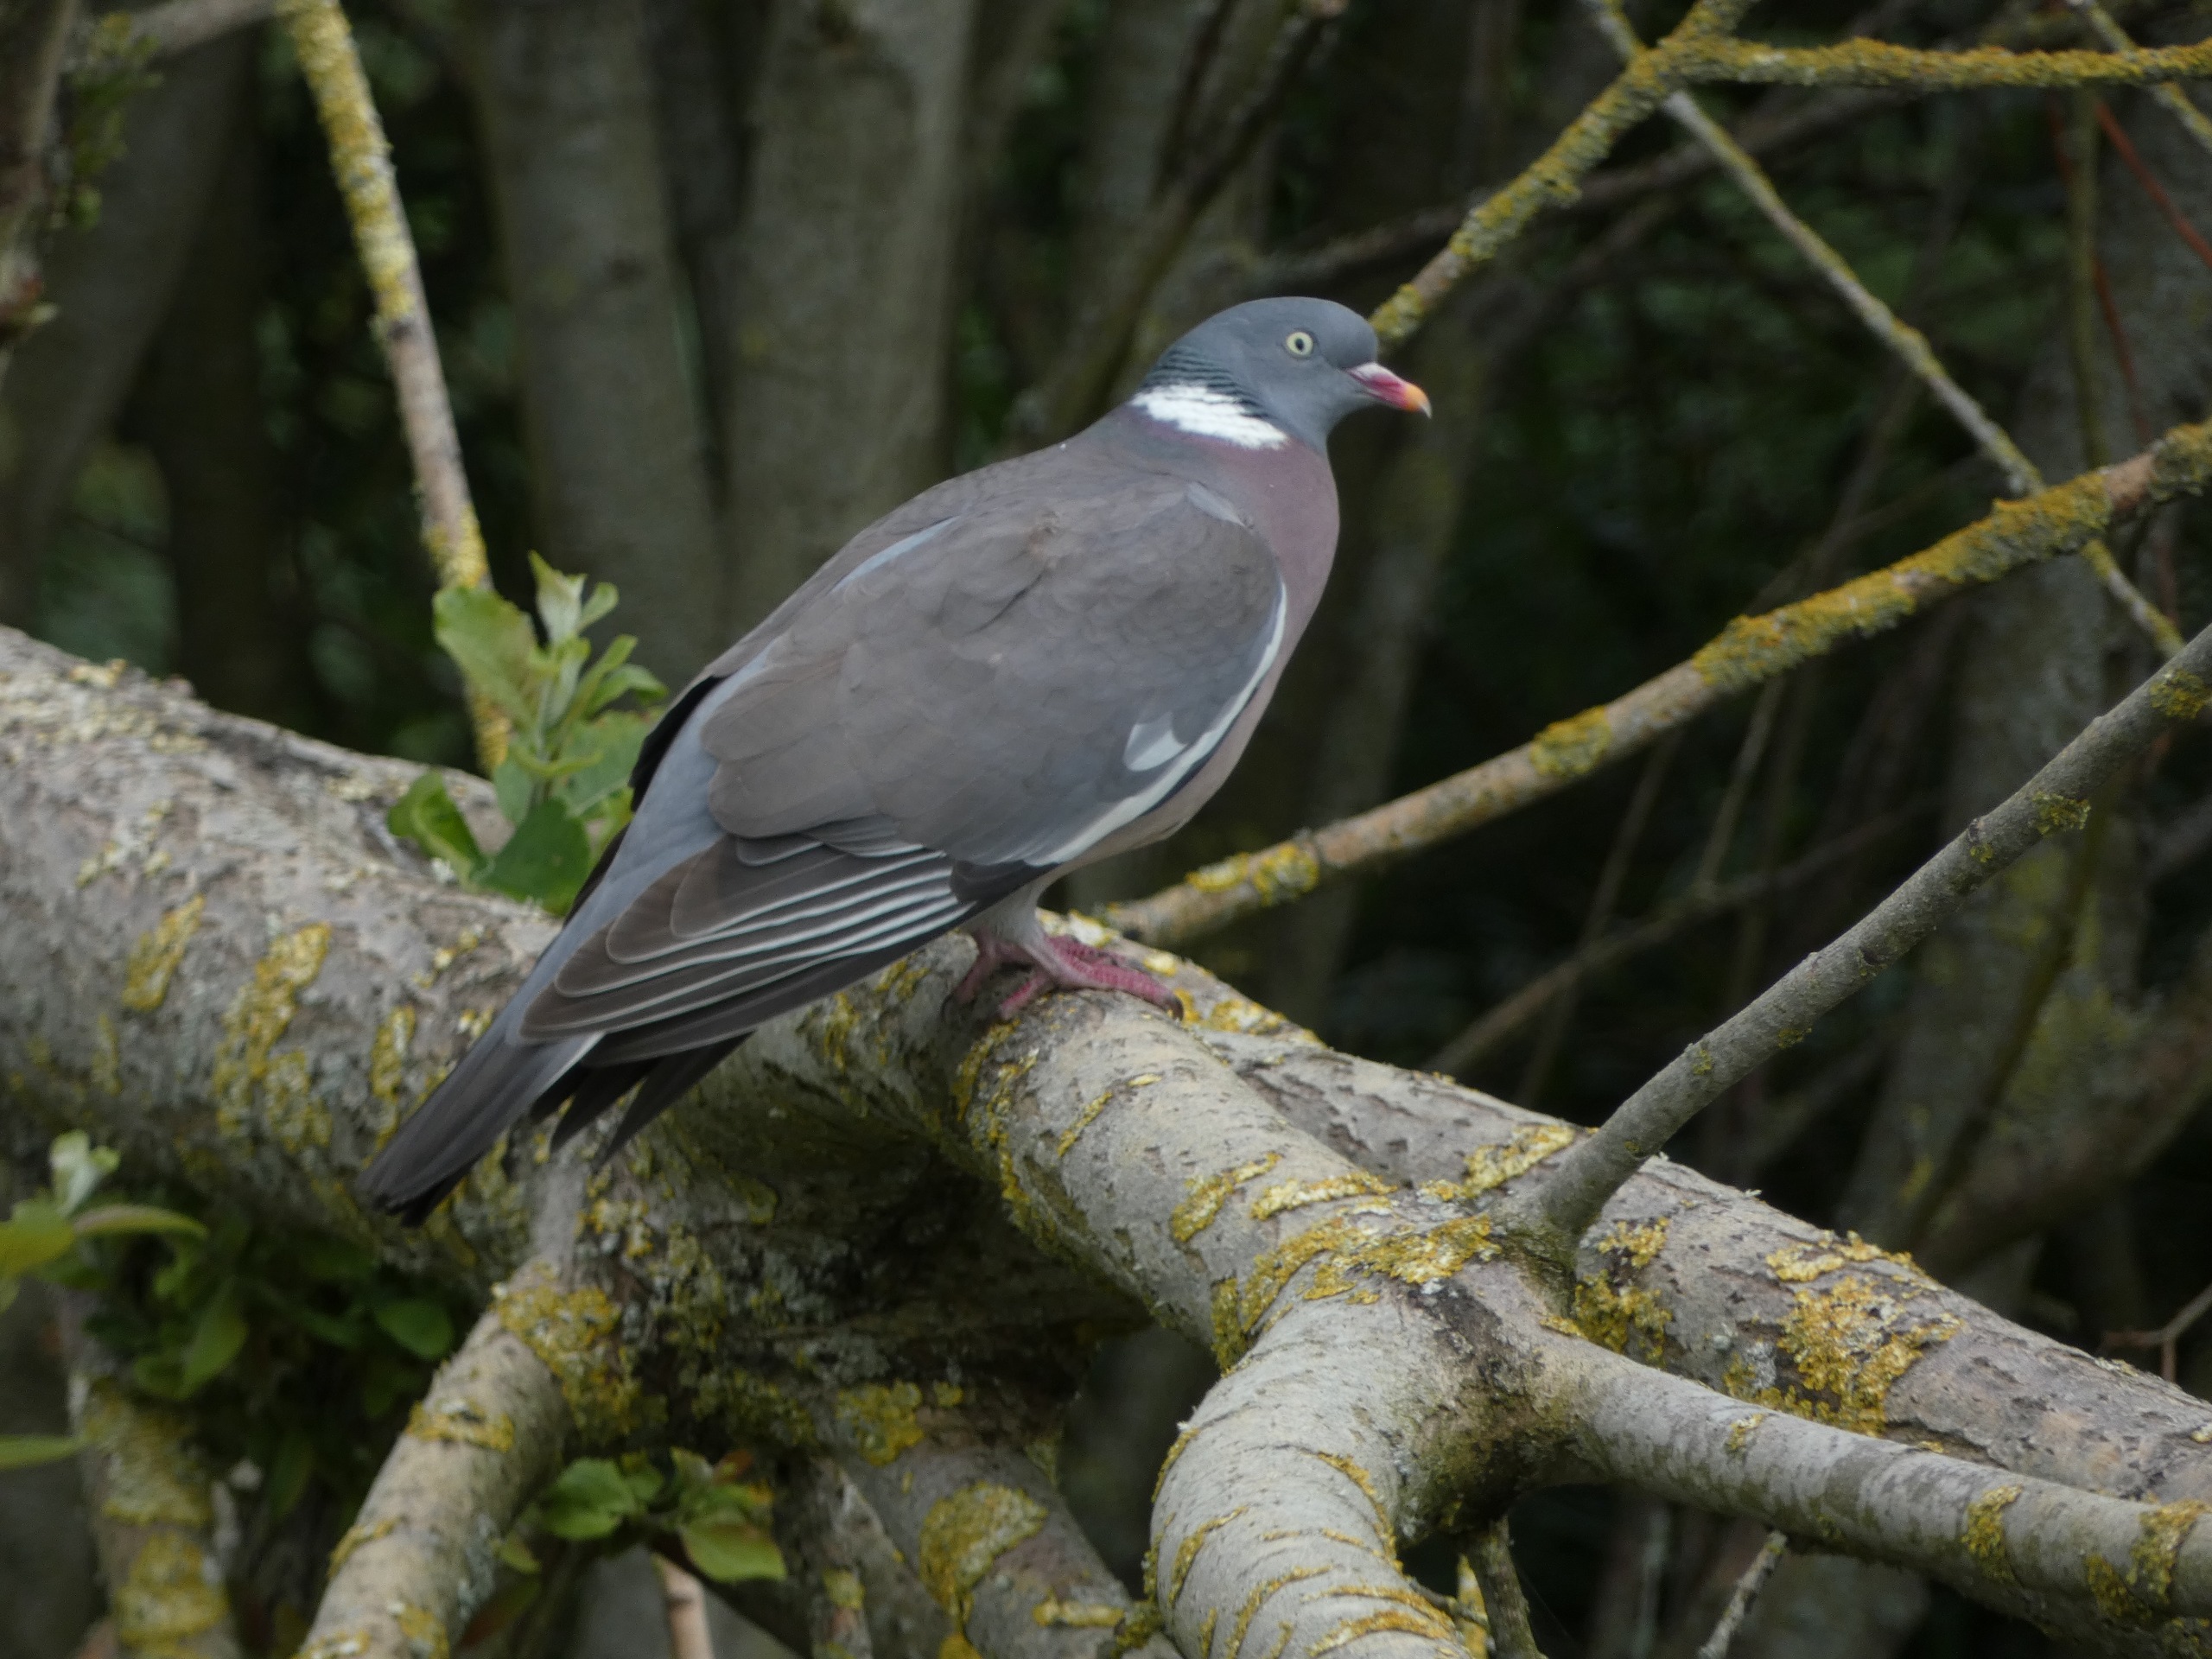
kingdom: Animalia
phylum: Chordata
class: Aves
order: Columbiformes
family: Columbidae
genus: Columba
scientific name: Columba palumbus
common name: Ringdue
